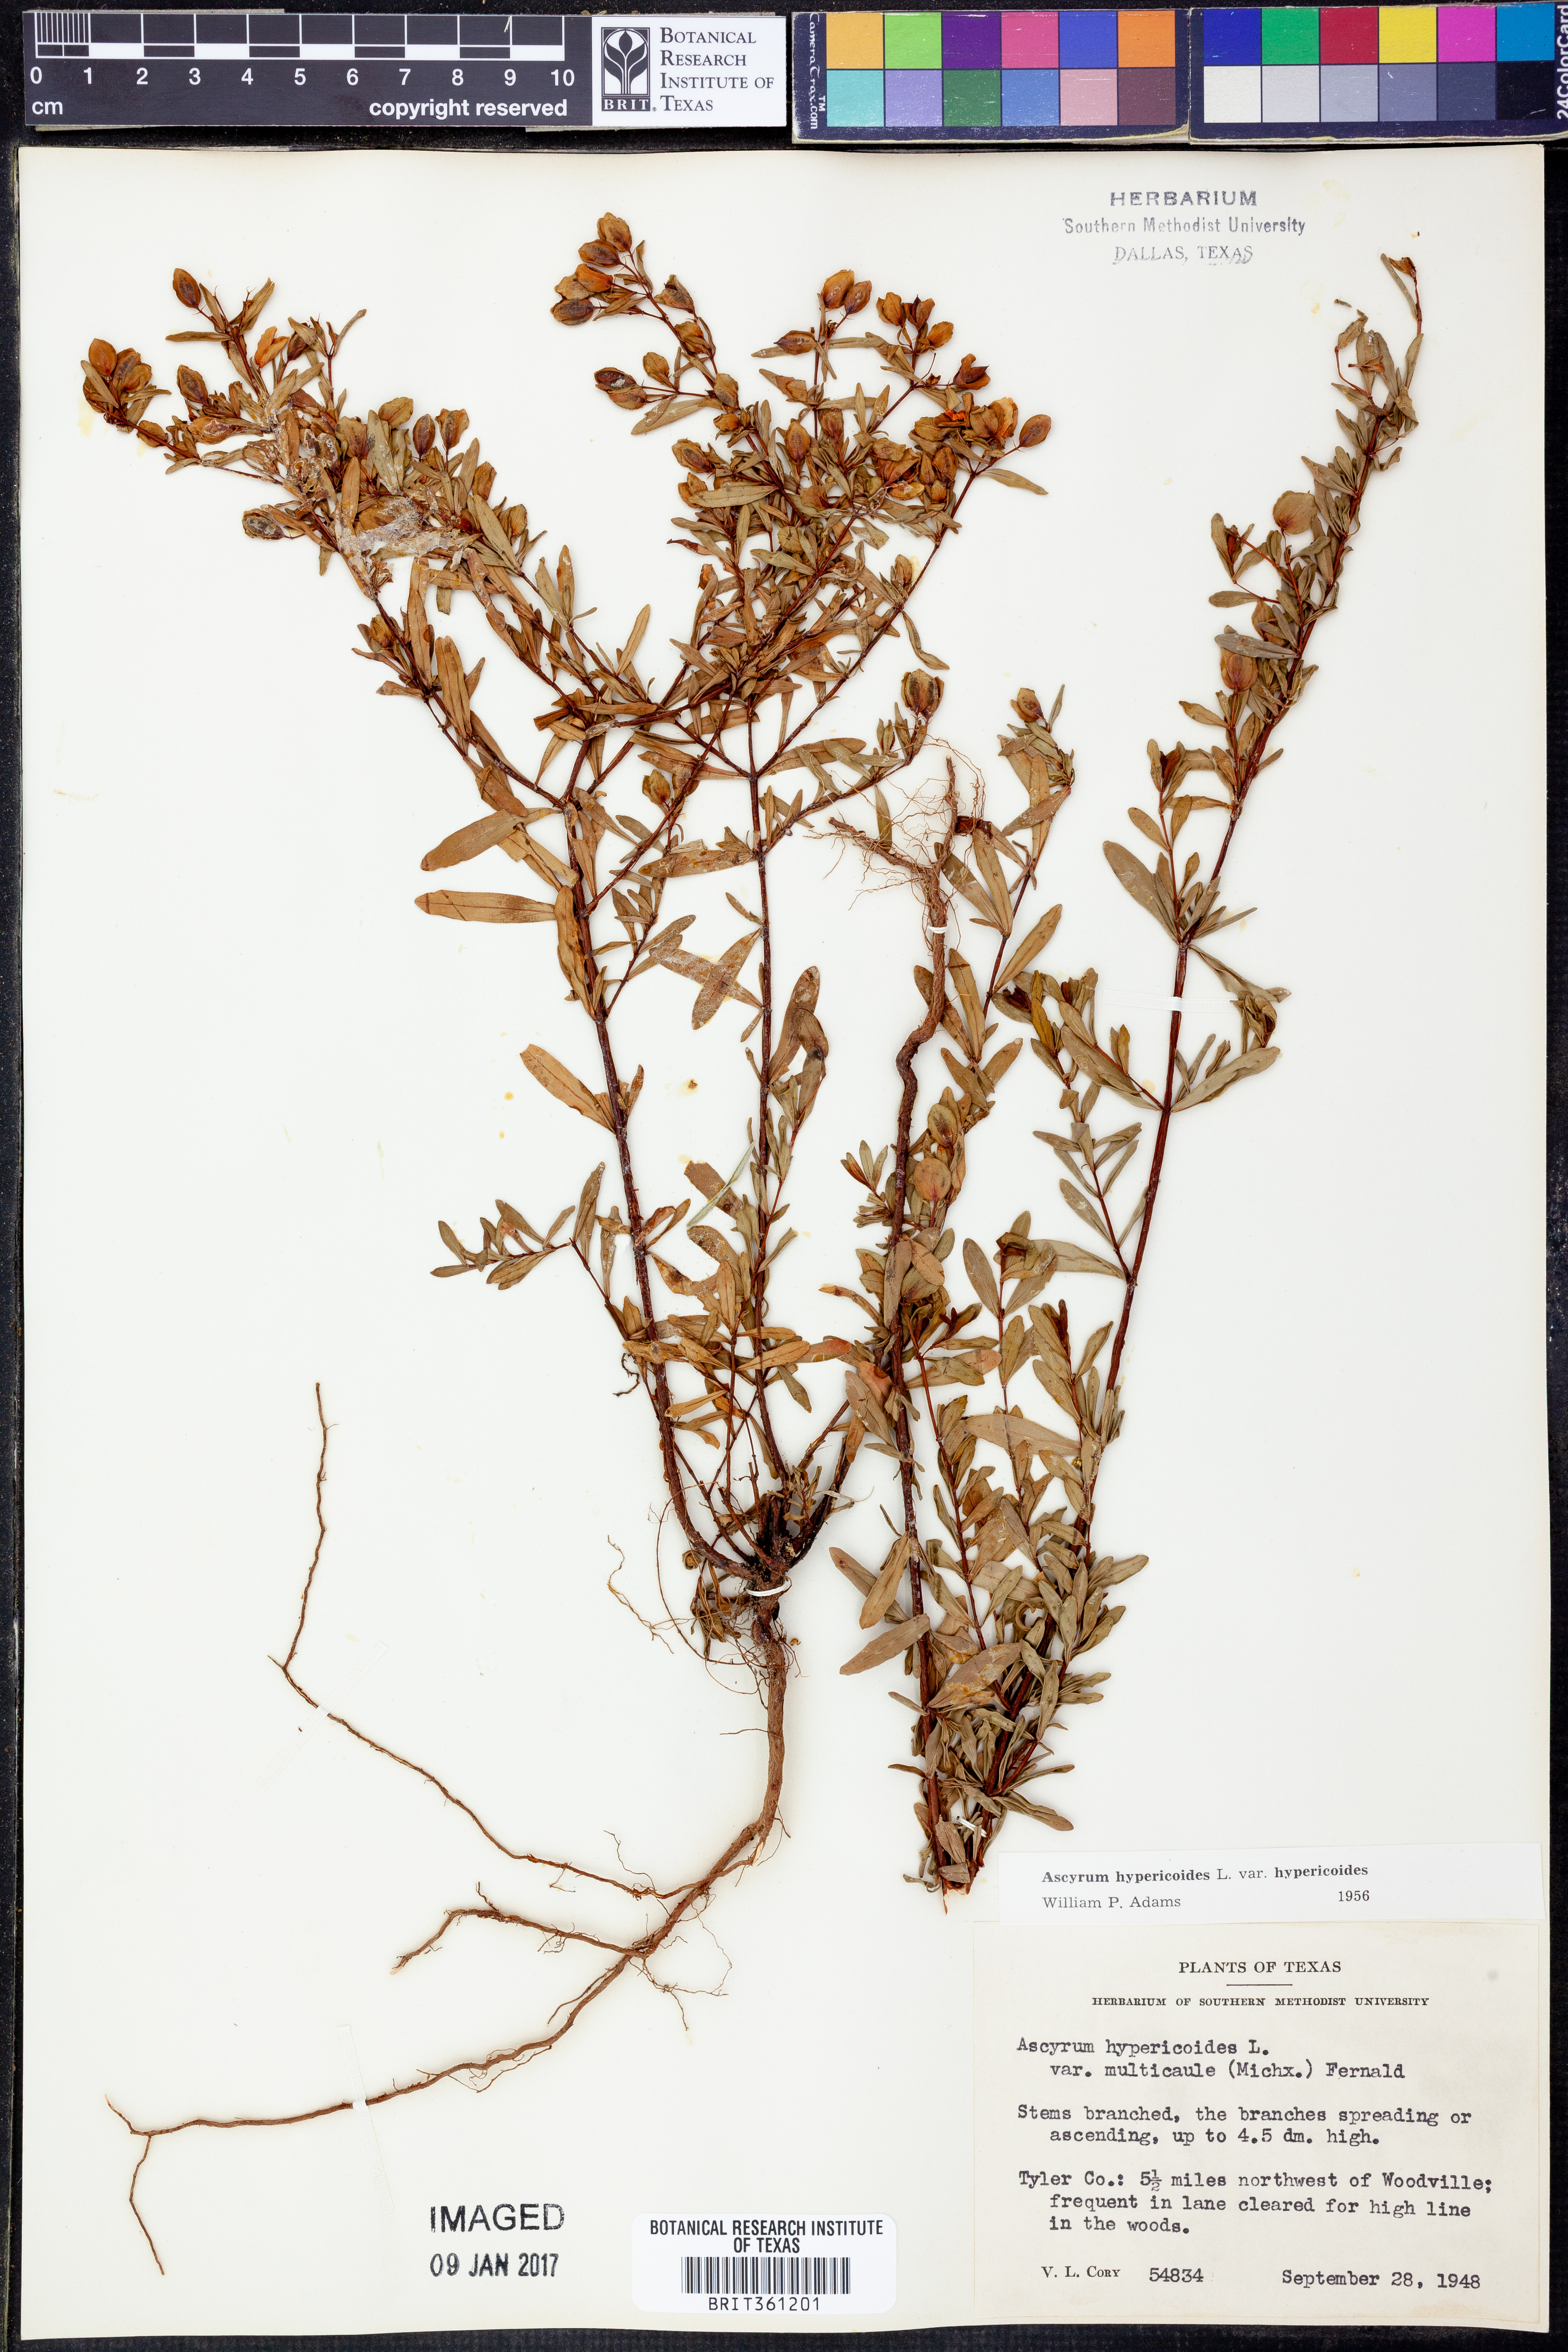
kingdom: Plantae
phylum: Tracheophyta
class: Magnoliopsida
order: Malpighiales
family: Hypericaceae
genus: Hypericum
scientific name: Hypericum hypericoides
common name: St. andrew's cross
